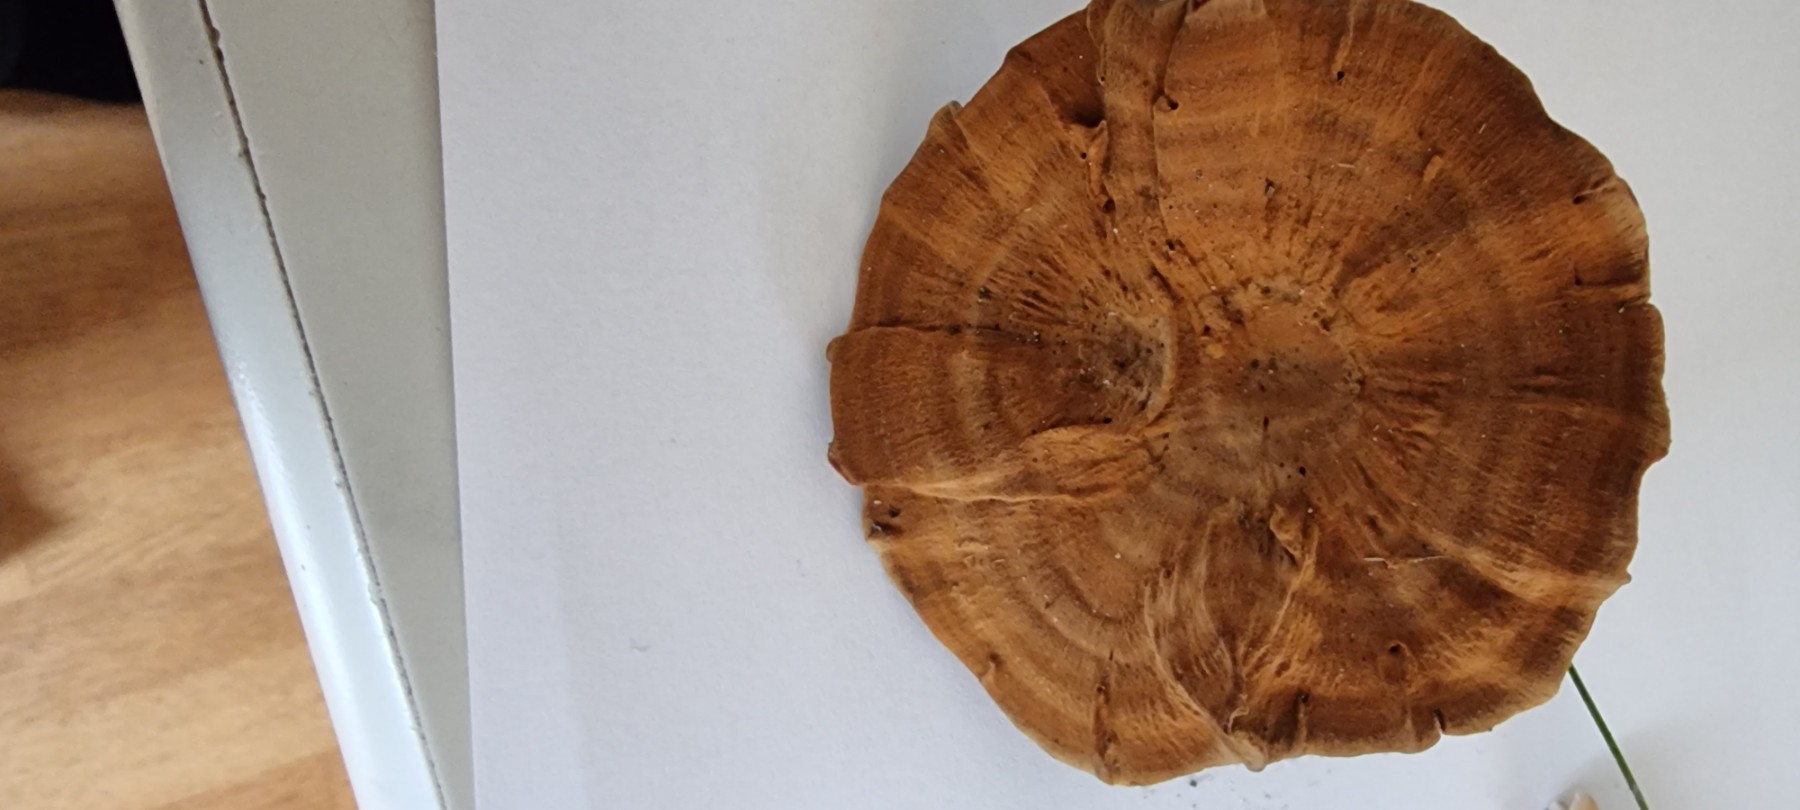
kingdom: Fungi
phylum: Basidiomycota
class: Agaricomycetes
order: Hymenochaetales
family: Hymenochaetaceae
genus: Coltricia
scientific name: Coltricia perennis
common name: almindelig sandporesvamp
